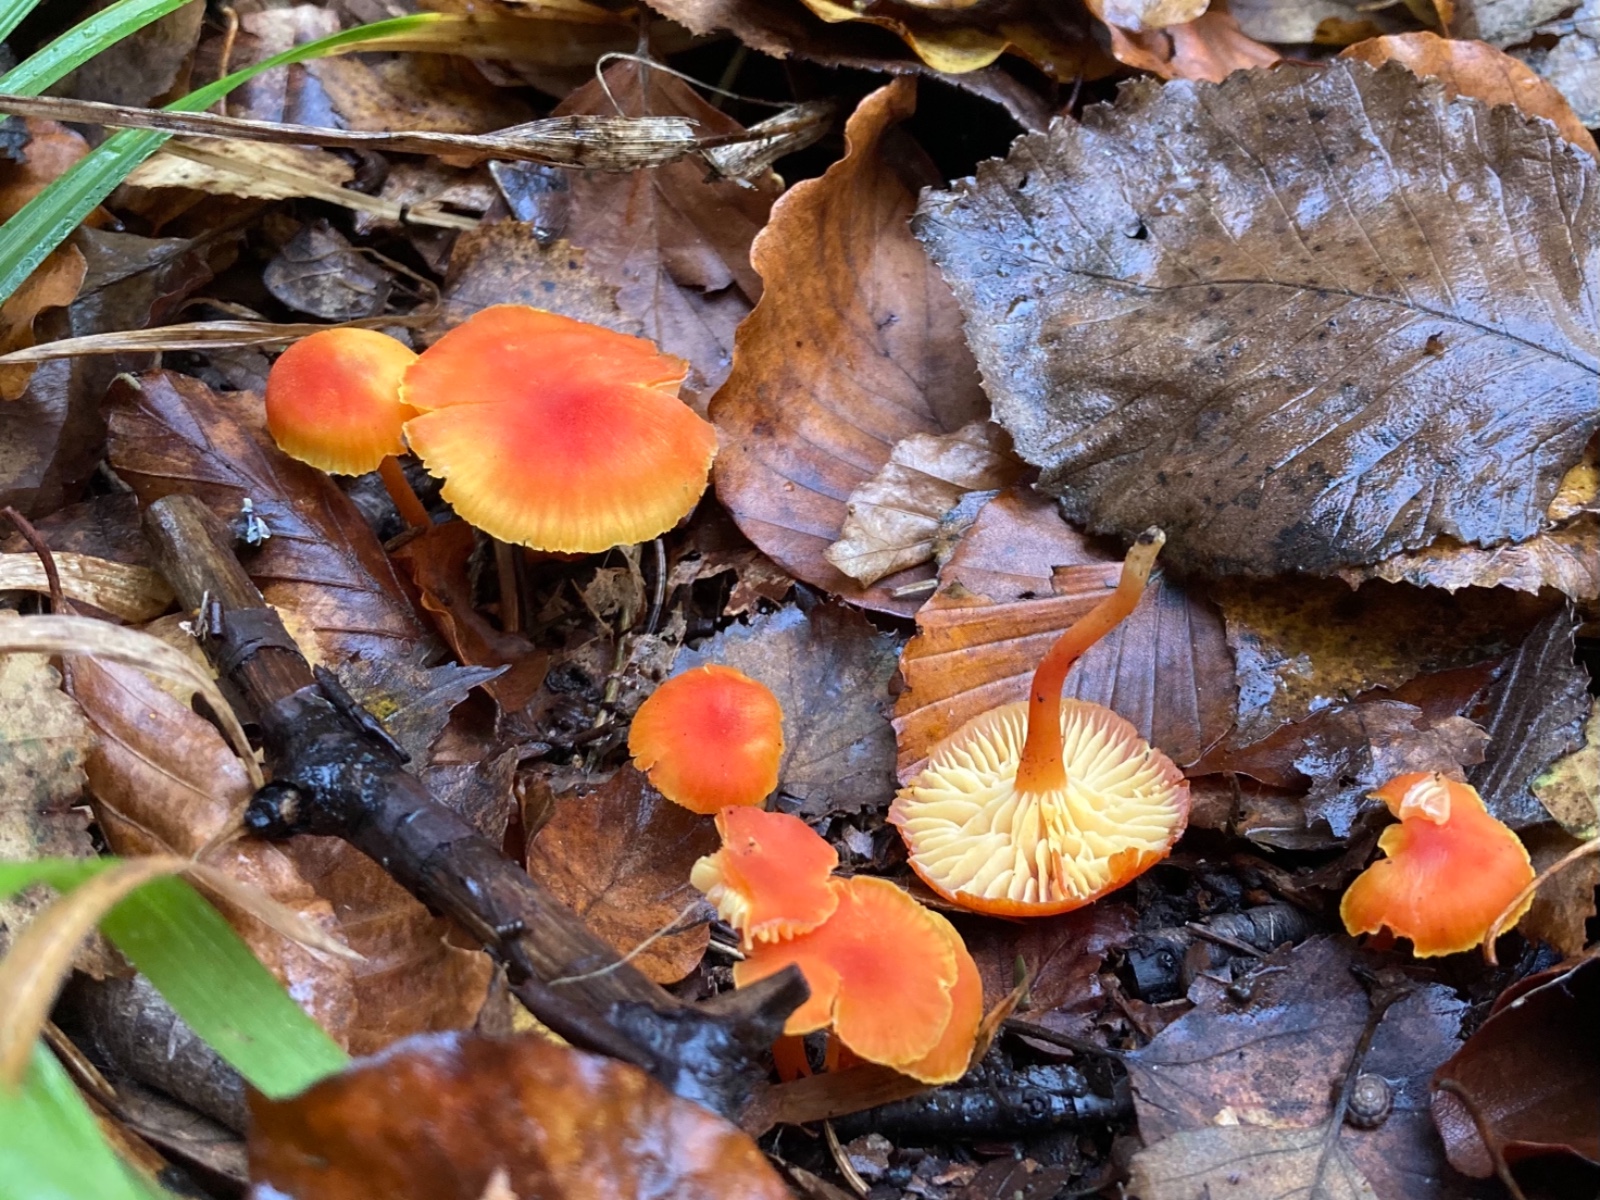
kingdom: Fungi
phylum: Basidiomycota
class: Agaricomycetes
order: Agaricales
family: Hygrophoraceae
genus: Hygrocybe
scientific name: Hygrocybe miniata
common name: mønje-vokshat
